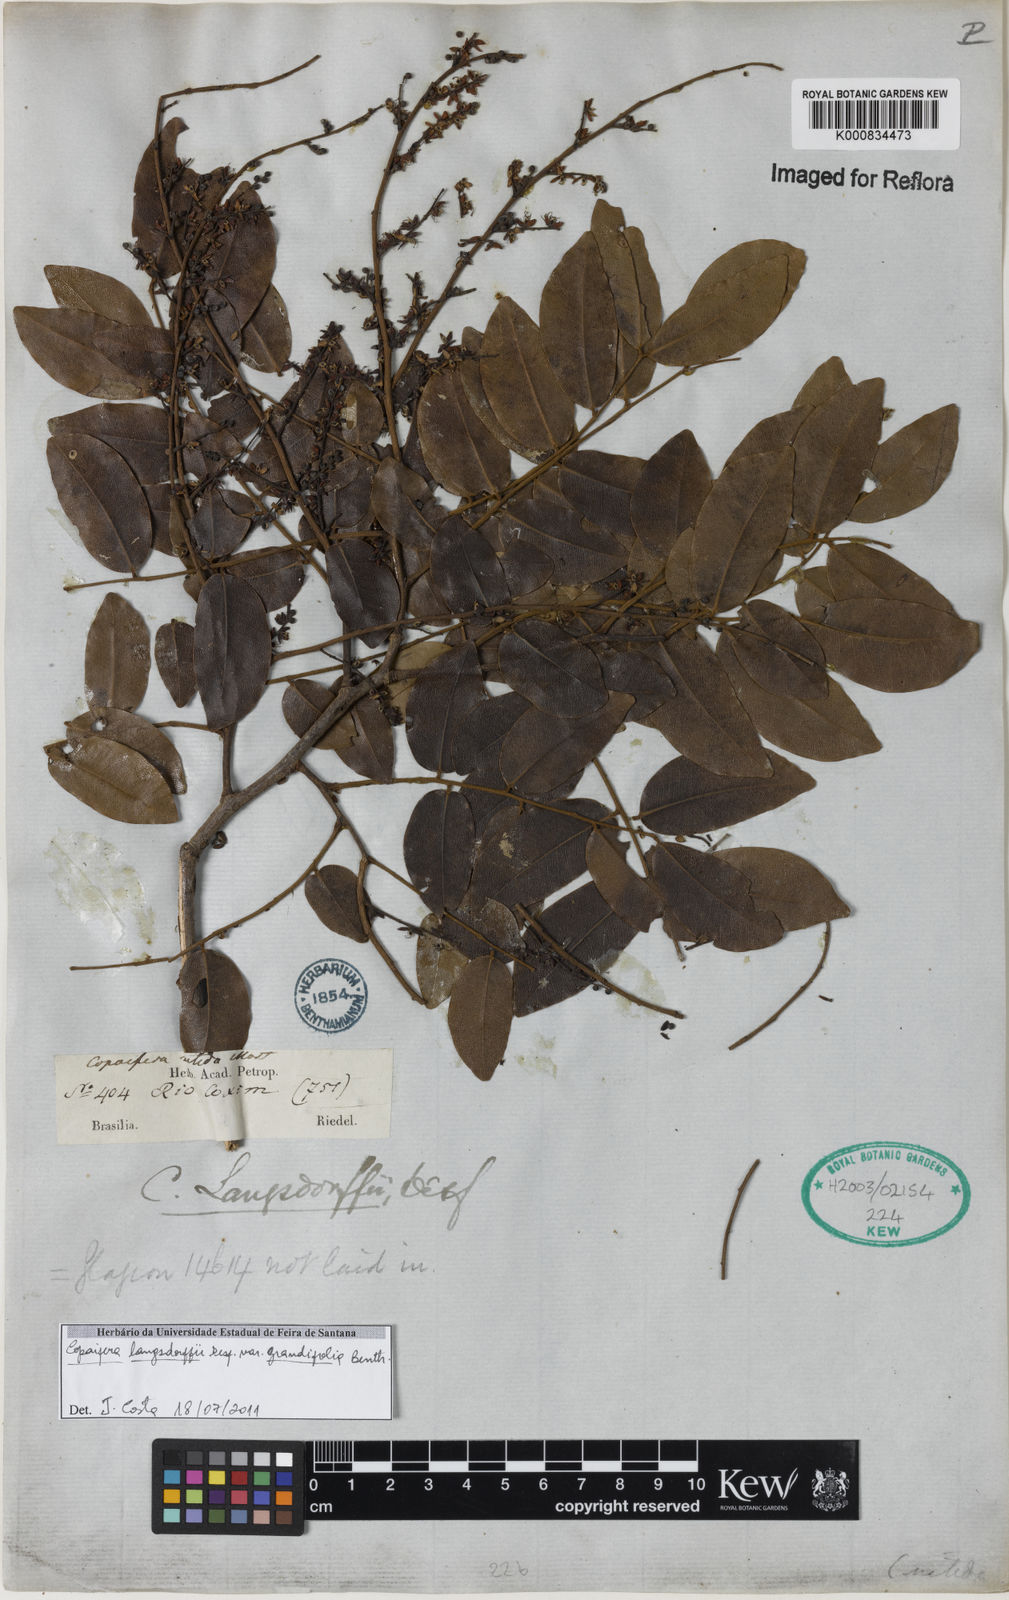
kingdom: Plantae
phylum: Tracheophyta
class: Magnoliopsida
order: Fabales
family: Fabaceae
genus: Copaifera
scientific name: Copaifera langsdorffii
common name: Brazilian diesel tree
